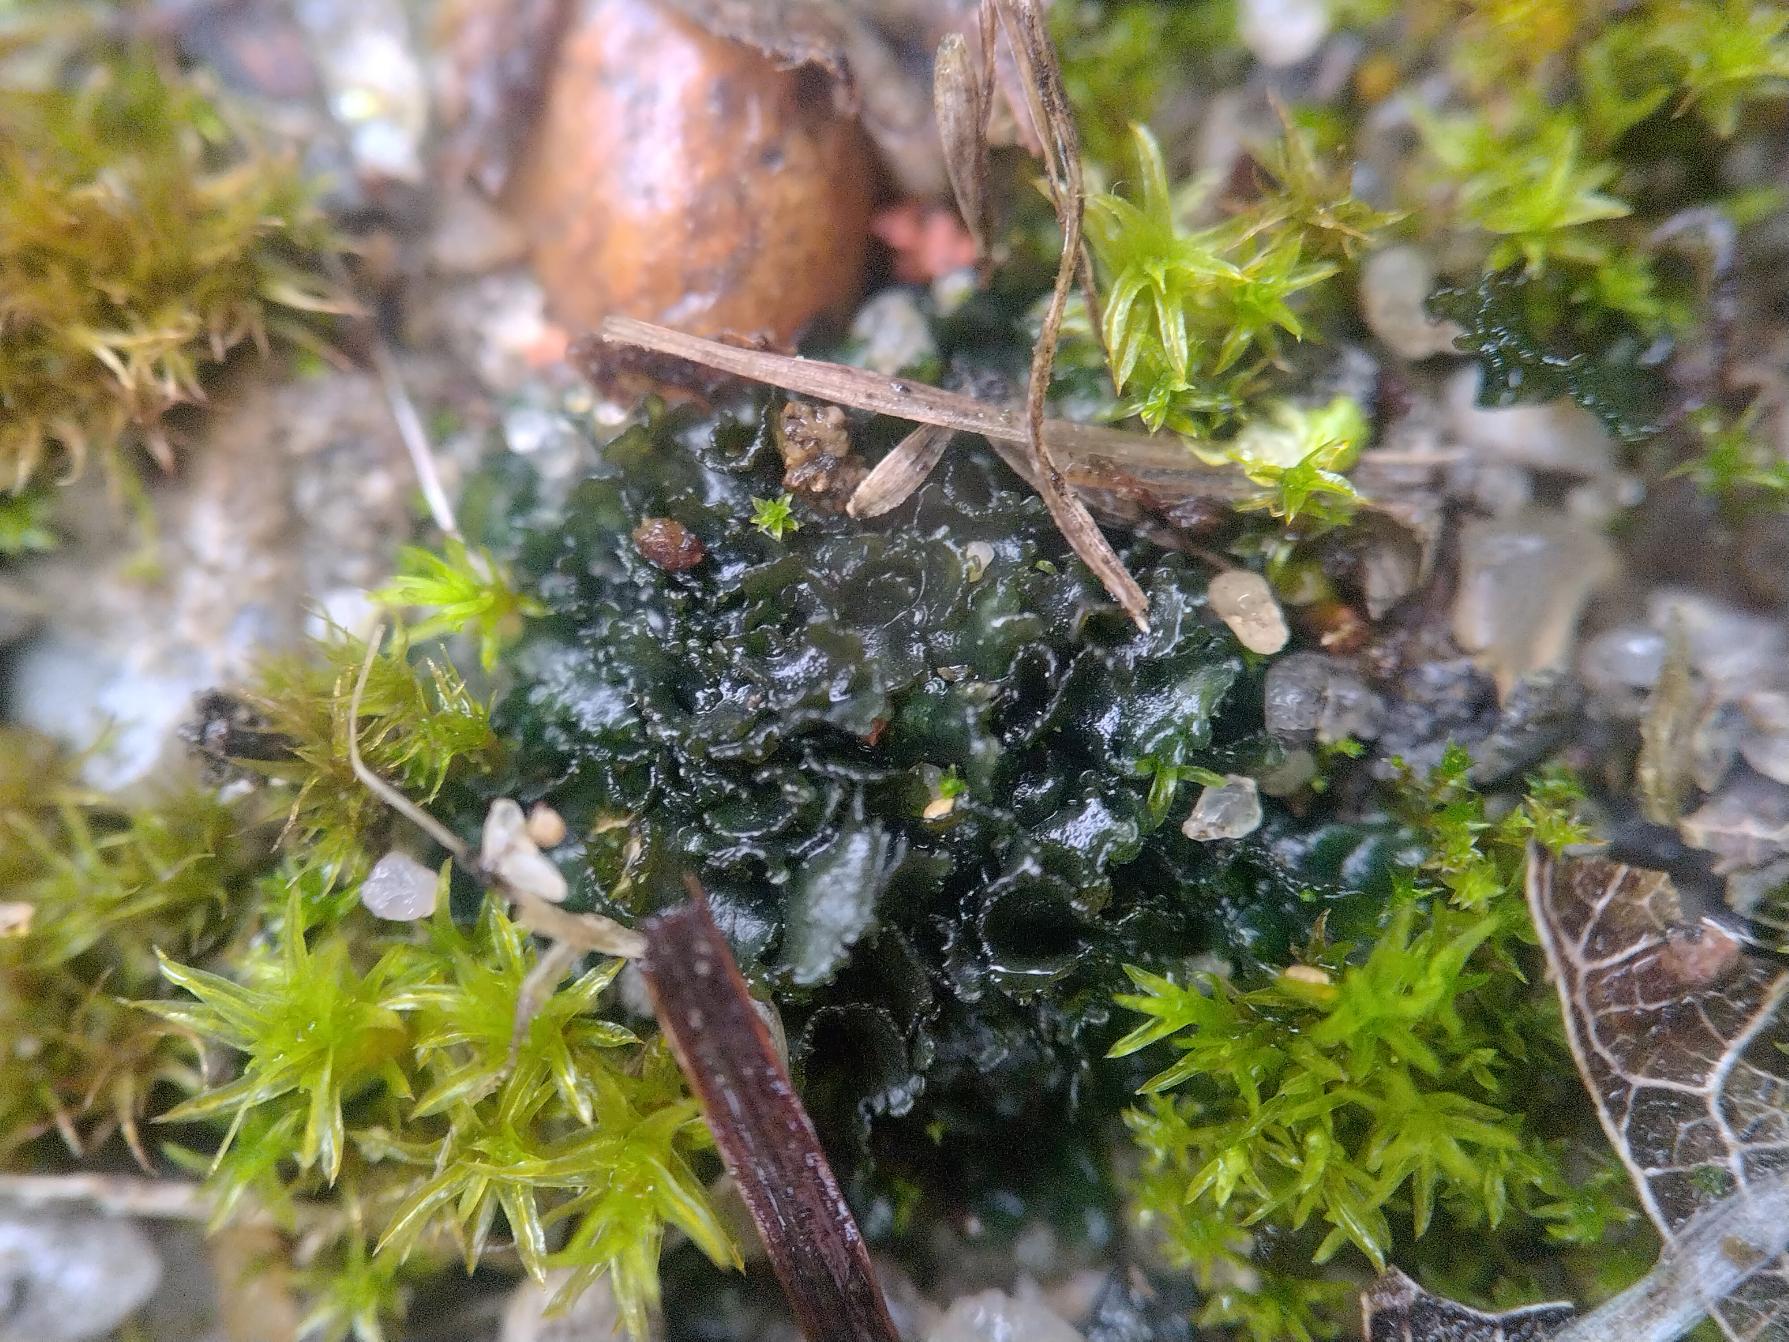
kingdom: Fungi
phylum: Ascomycota
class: Lecanoromycetes
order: Peltigerales
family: Collemataceae
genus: Blennothallia
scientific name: Blennothallia crispa
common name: Kruset bævrelav
